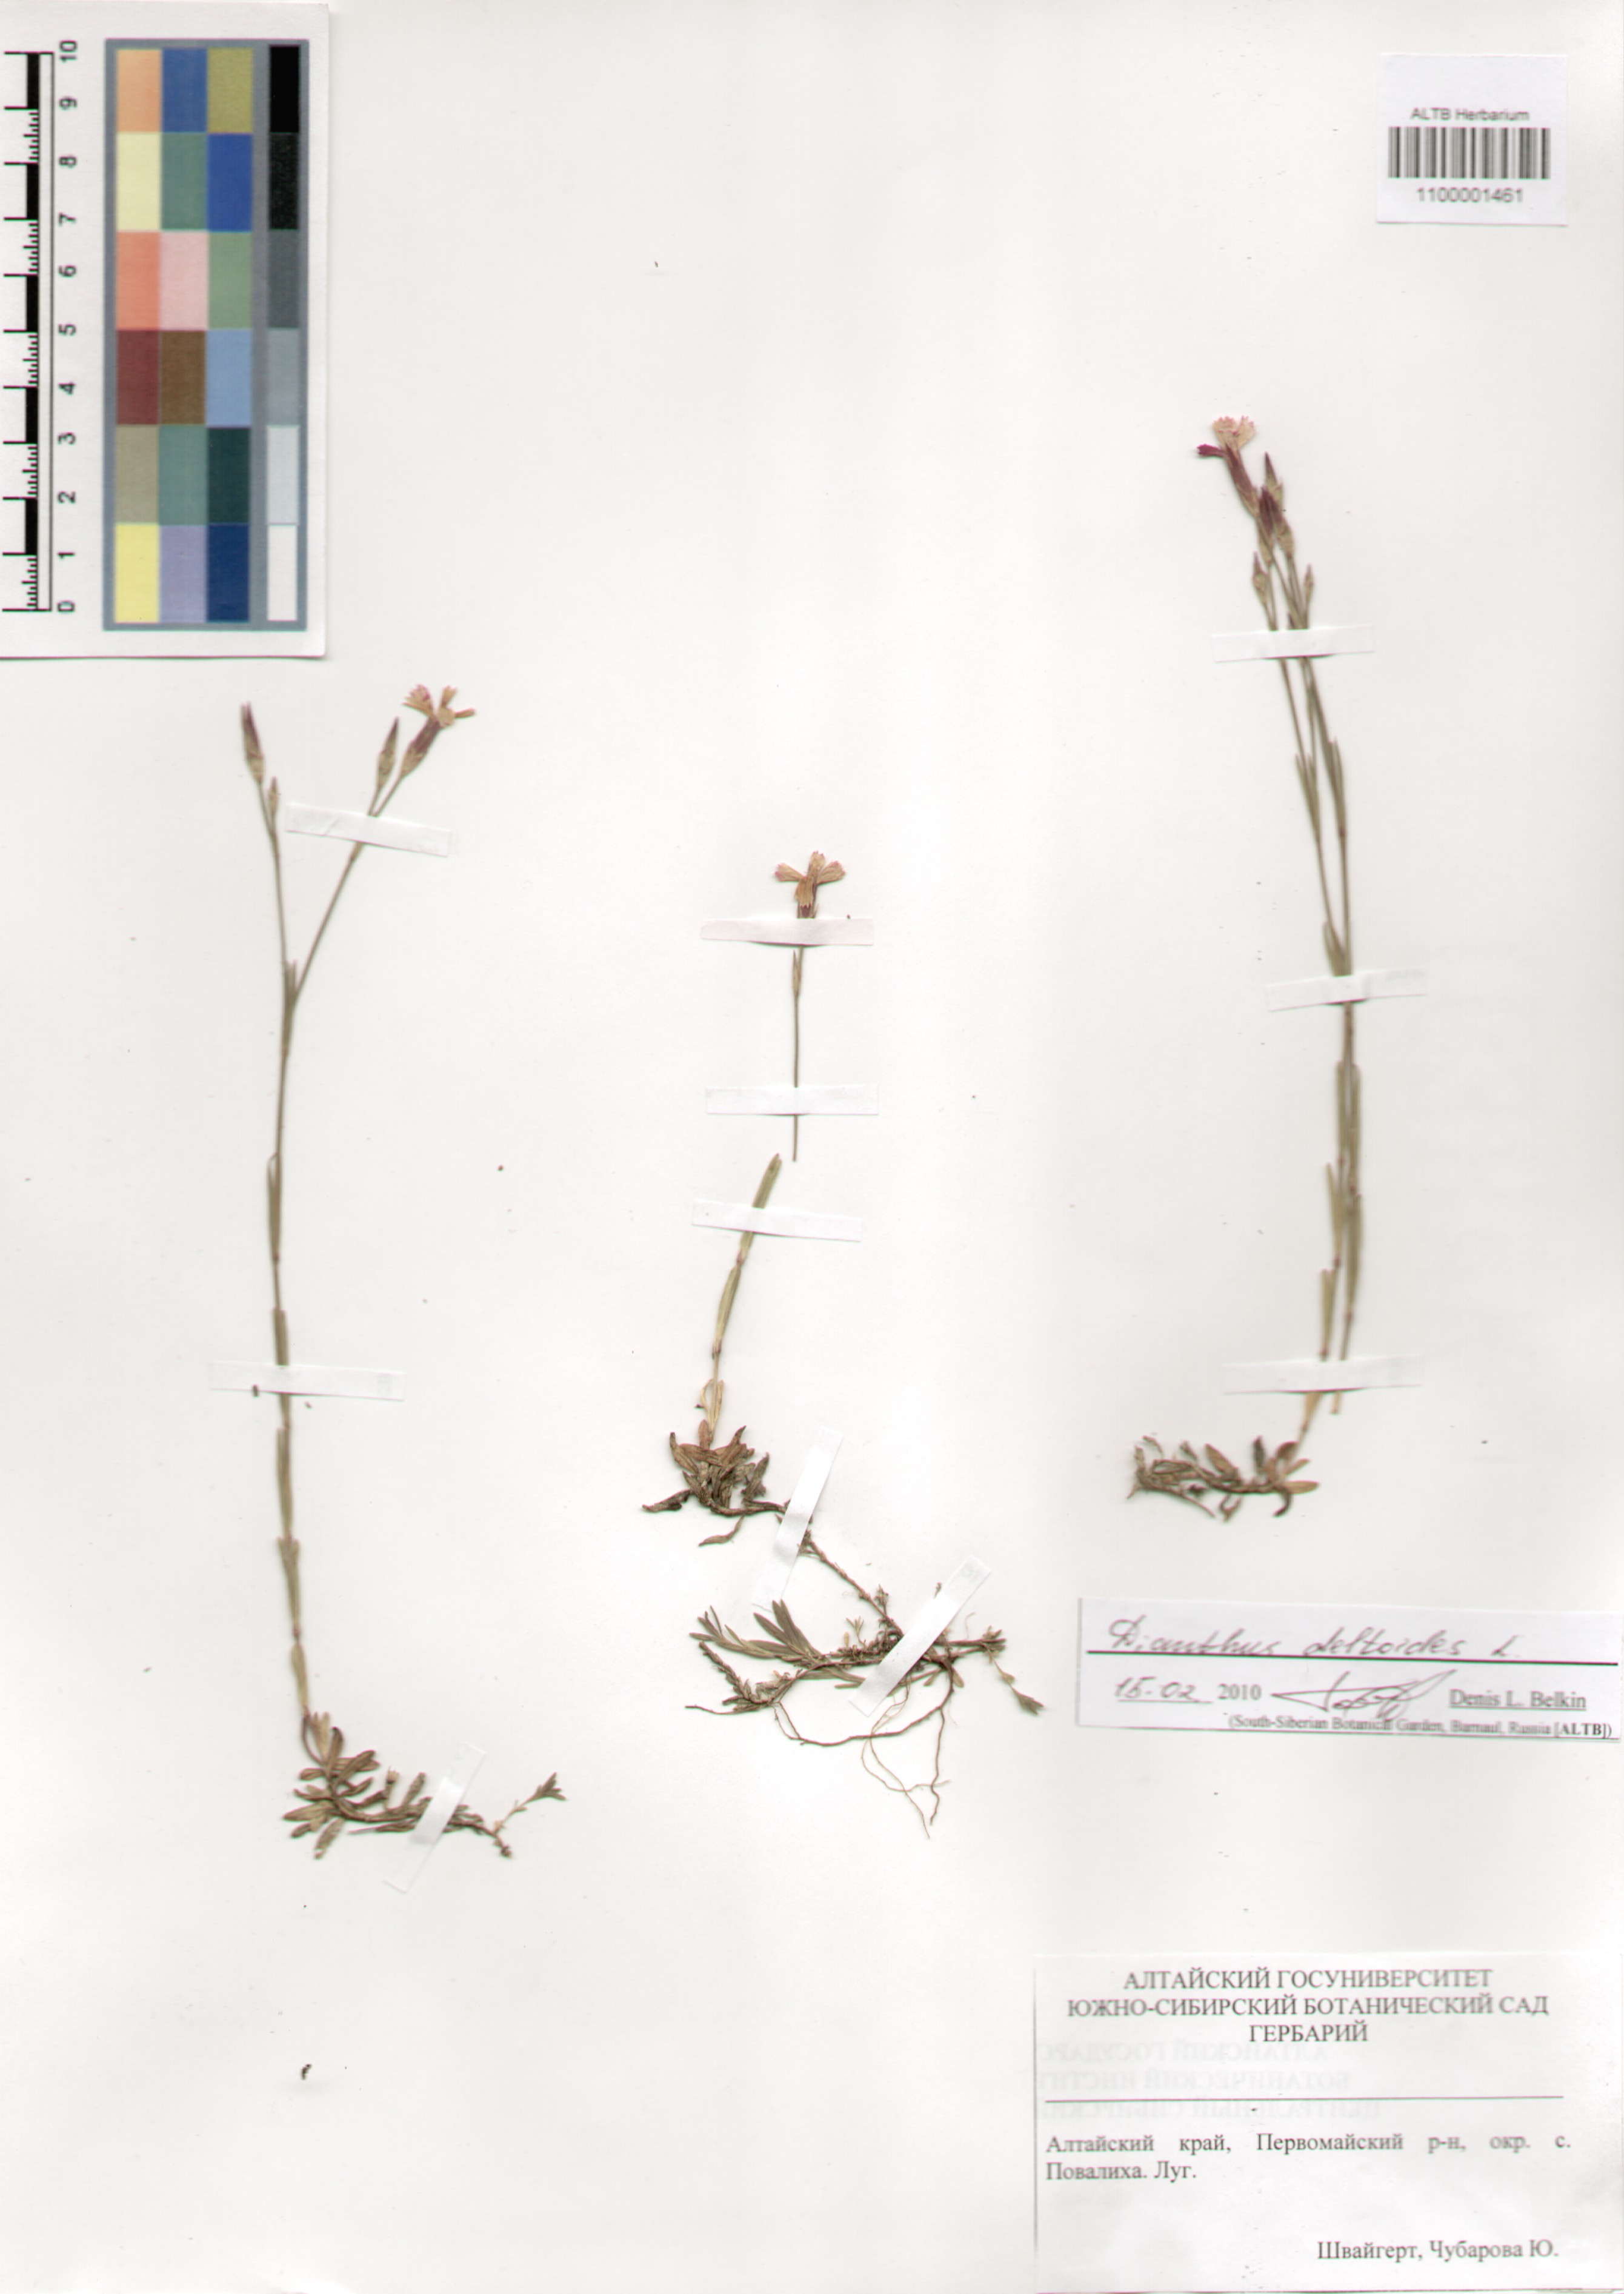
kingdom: Plantae
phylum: Tracheophyta
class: Magnoliopsida
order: Caryophyllales
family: Caryophyllaceae
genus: Dianthus
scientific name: Dianthus deltoides
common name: Maiden pink
